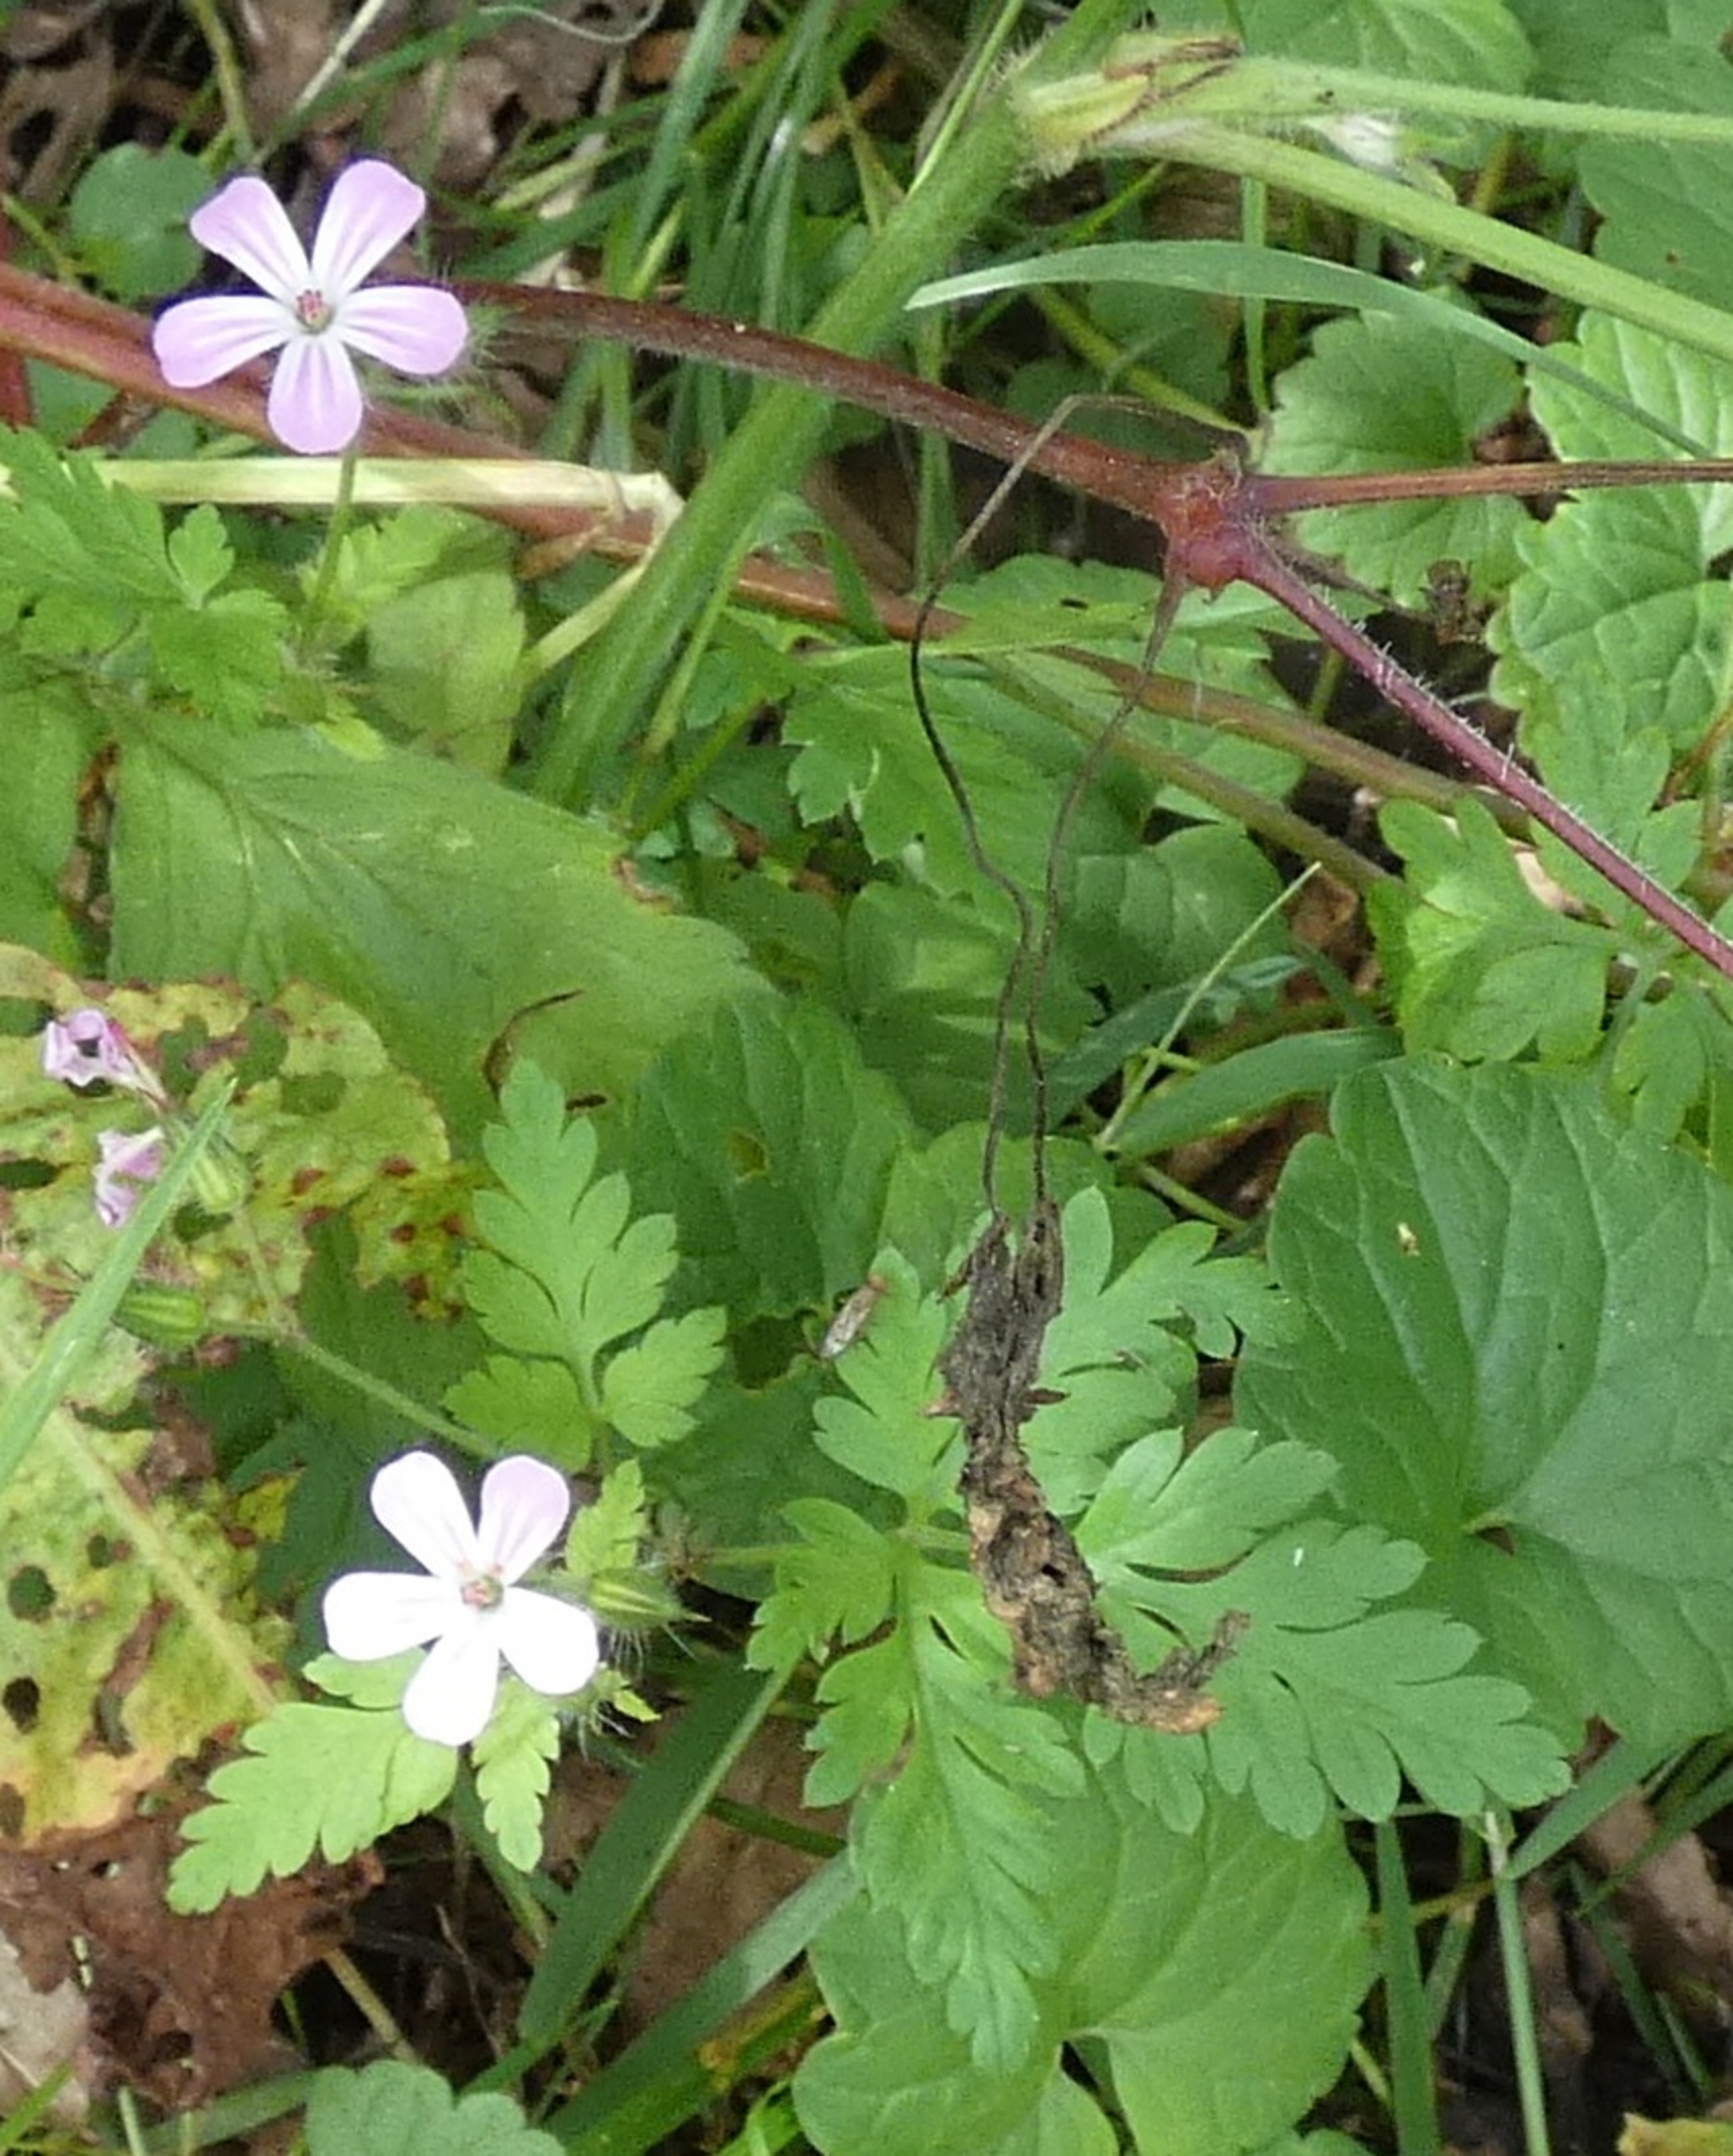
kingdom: Plantae
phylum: Tracheophyta
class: Magnoliopsida
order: Geraniales
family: Geraniaceae
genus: Geranium
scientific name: Geranium robertianum
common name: Stinkende storkenæb
